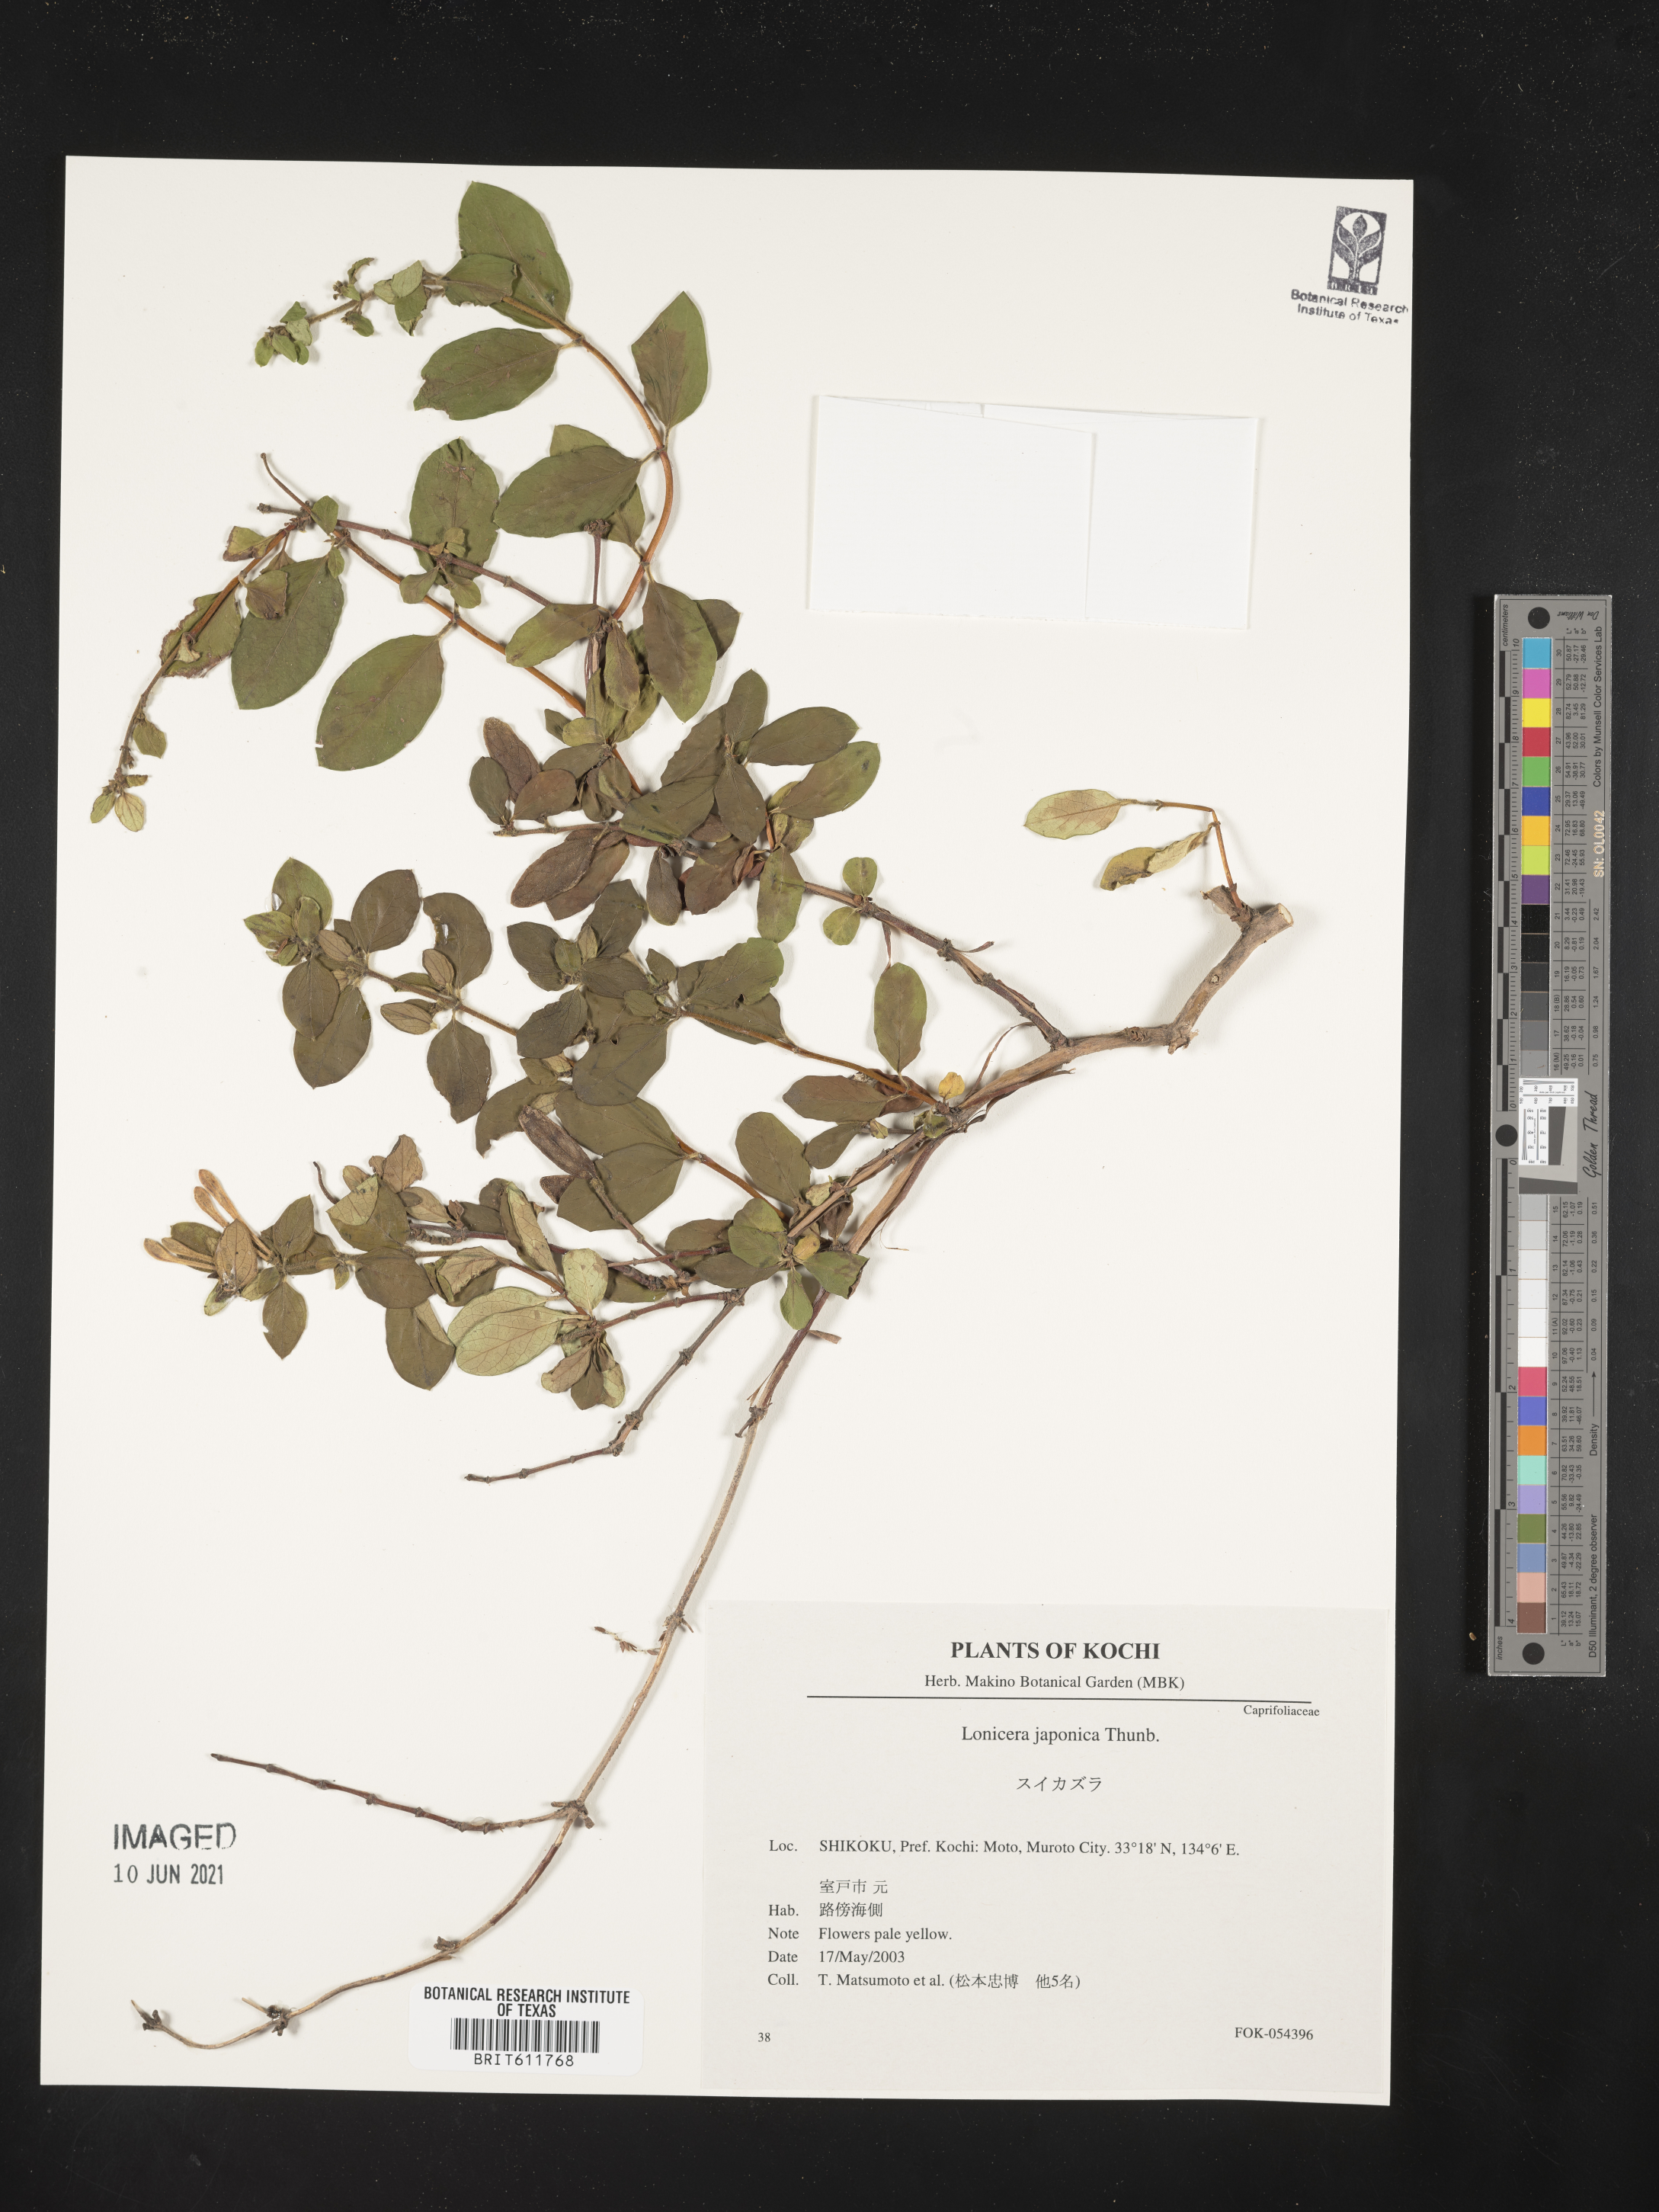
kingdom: Plantae
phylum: Tracheophyta
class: Magnoliopsida
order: Dipsacales
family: Caprifoliaceae
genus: Lonicera
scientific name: Lonicera japonica
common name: Japanese honeysuckle
